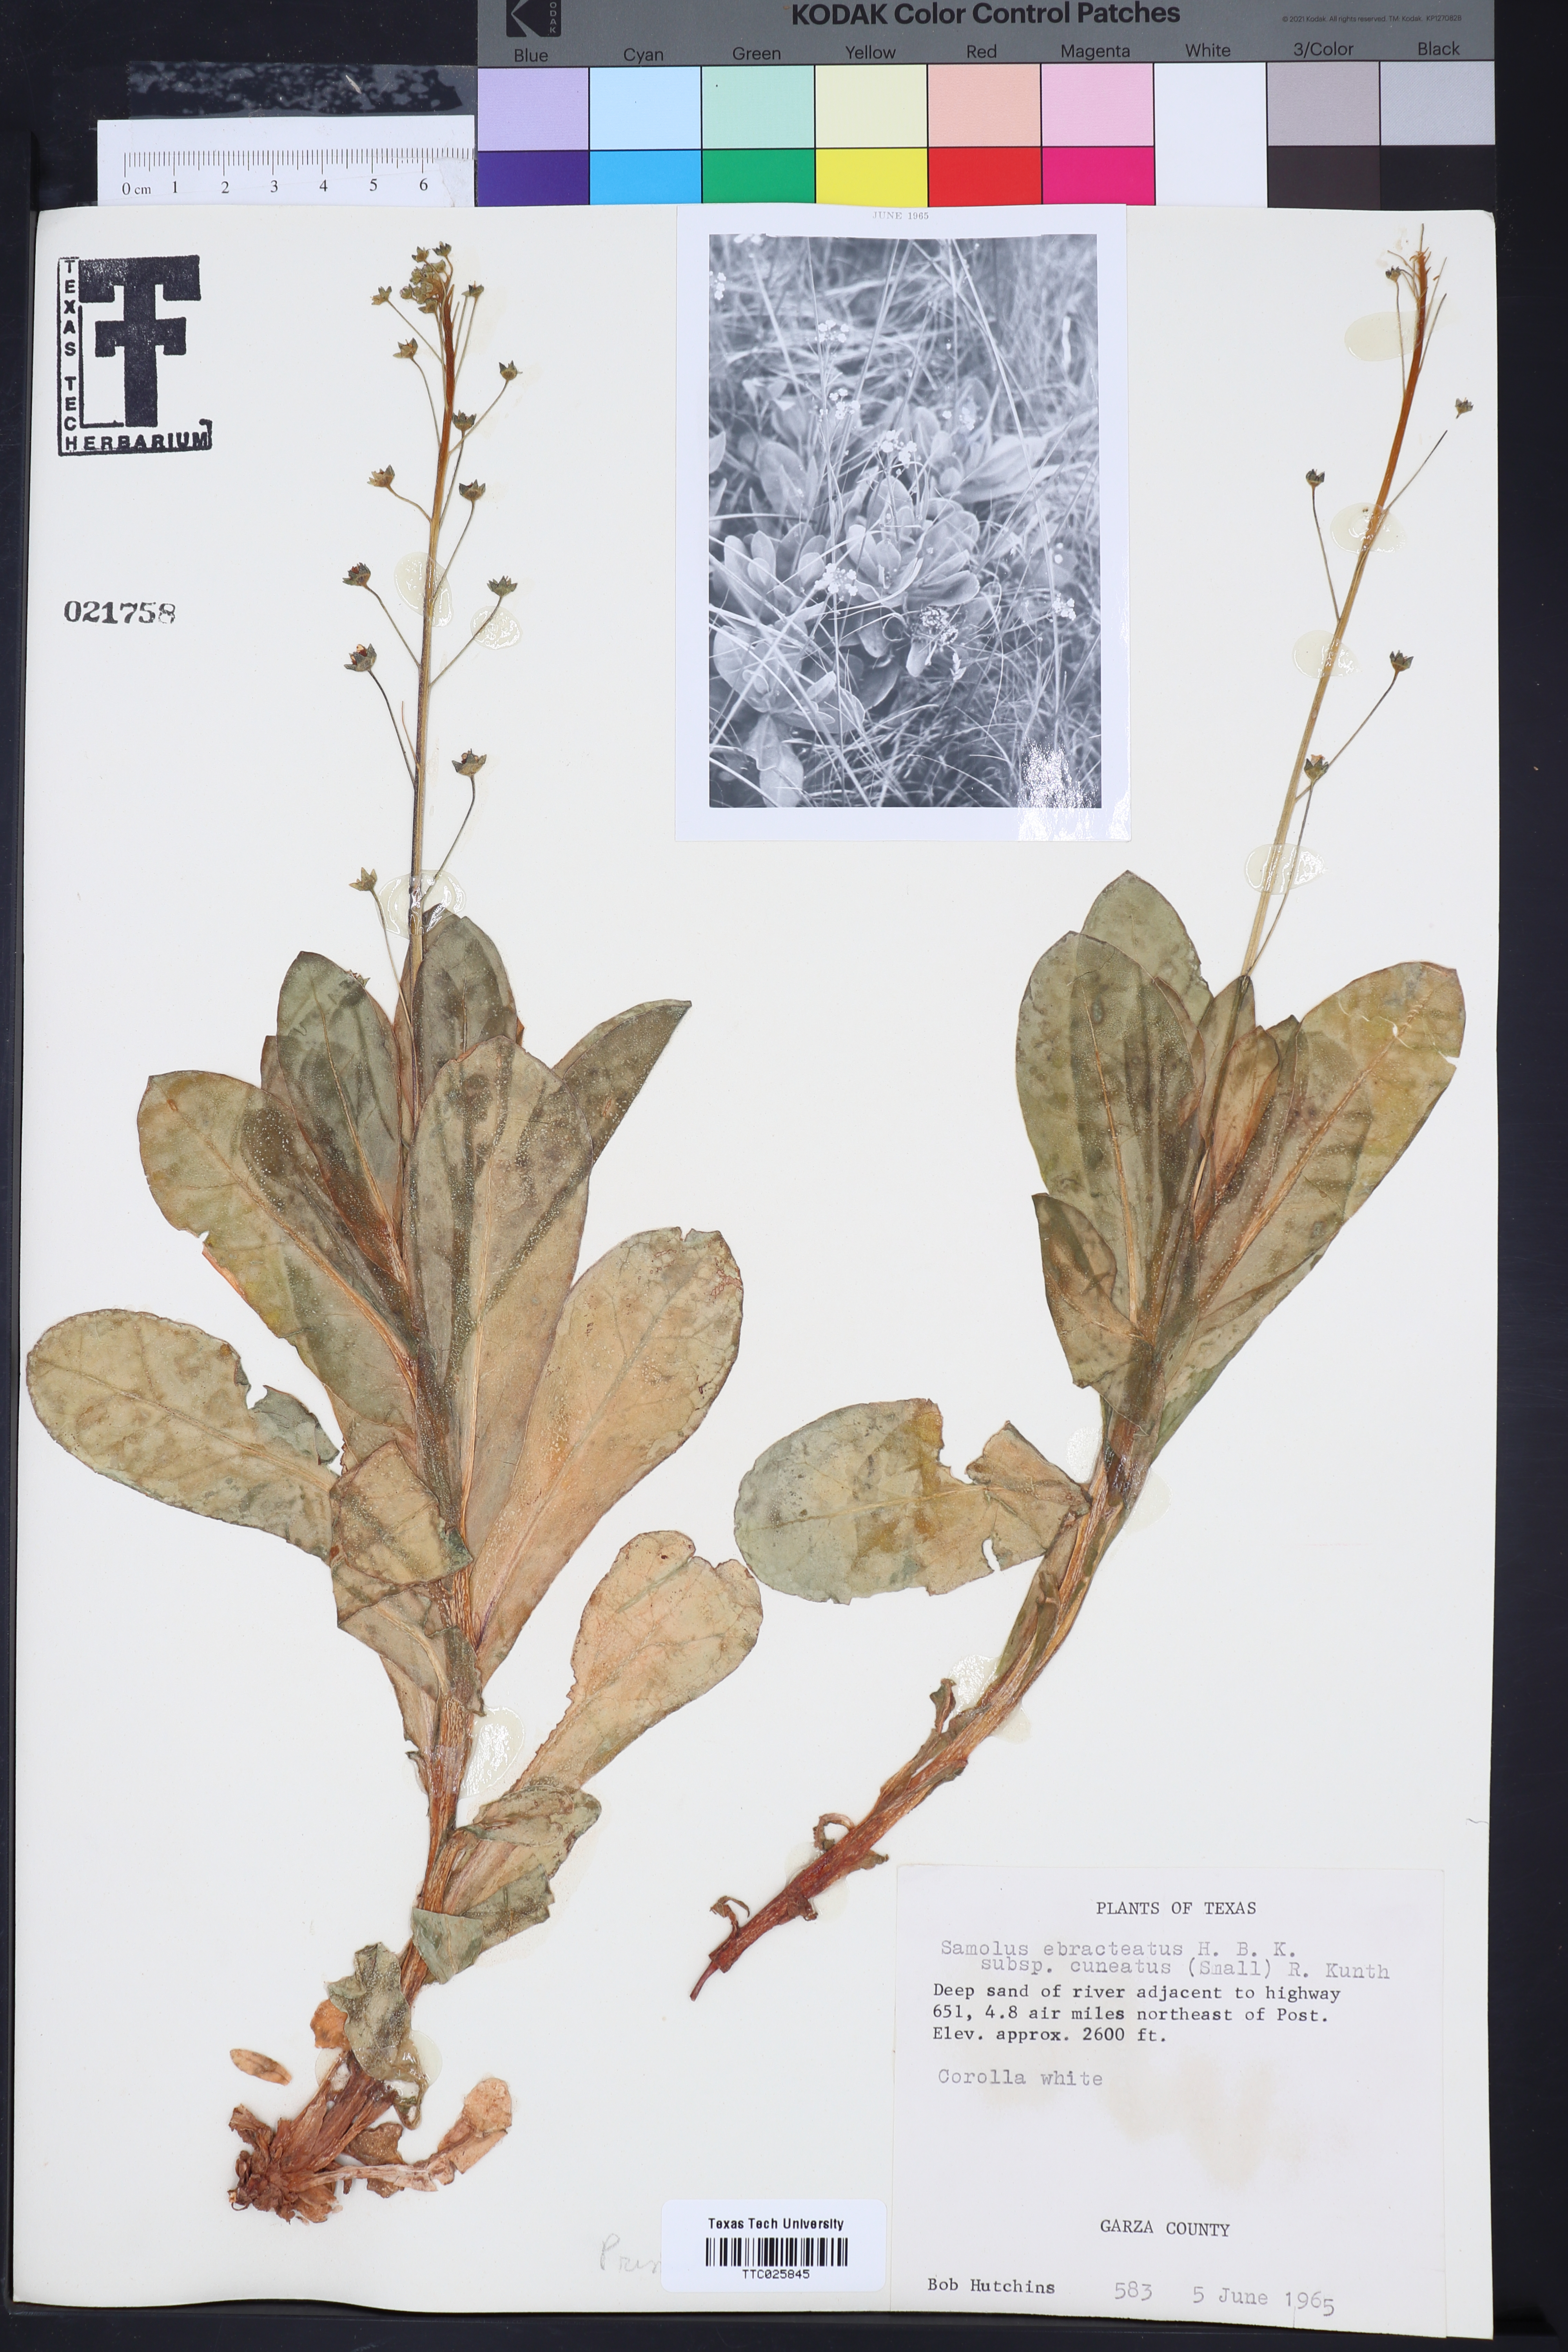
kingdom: Plantae
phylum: Tracheophyta
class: Magnoliopsida
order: Ericales
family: Primulaceae
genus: Samolus
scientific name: Samolus ebracteatus
